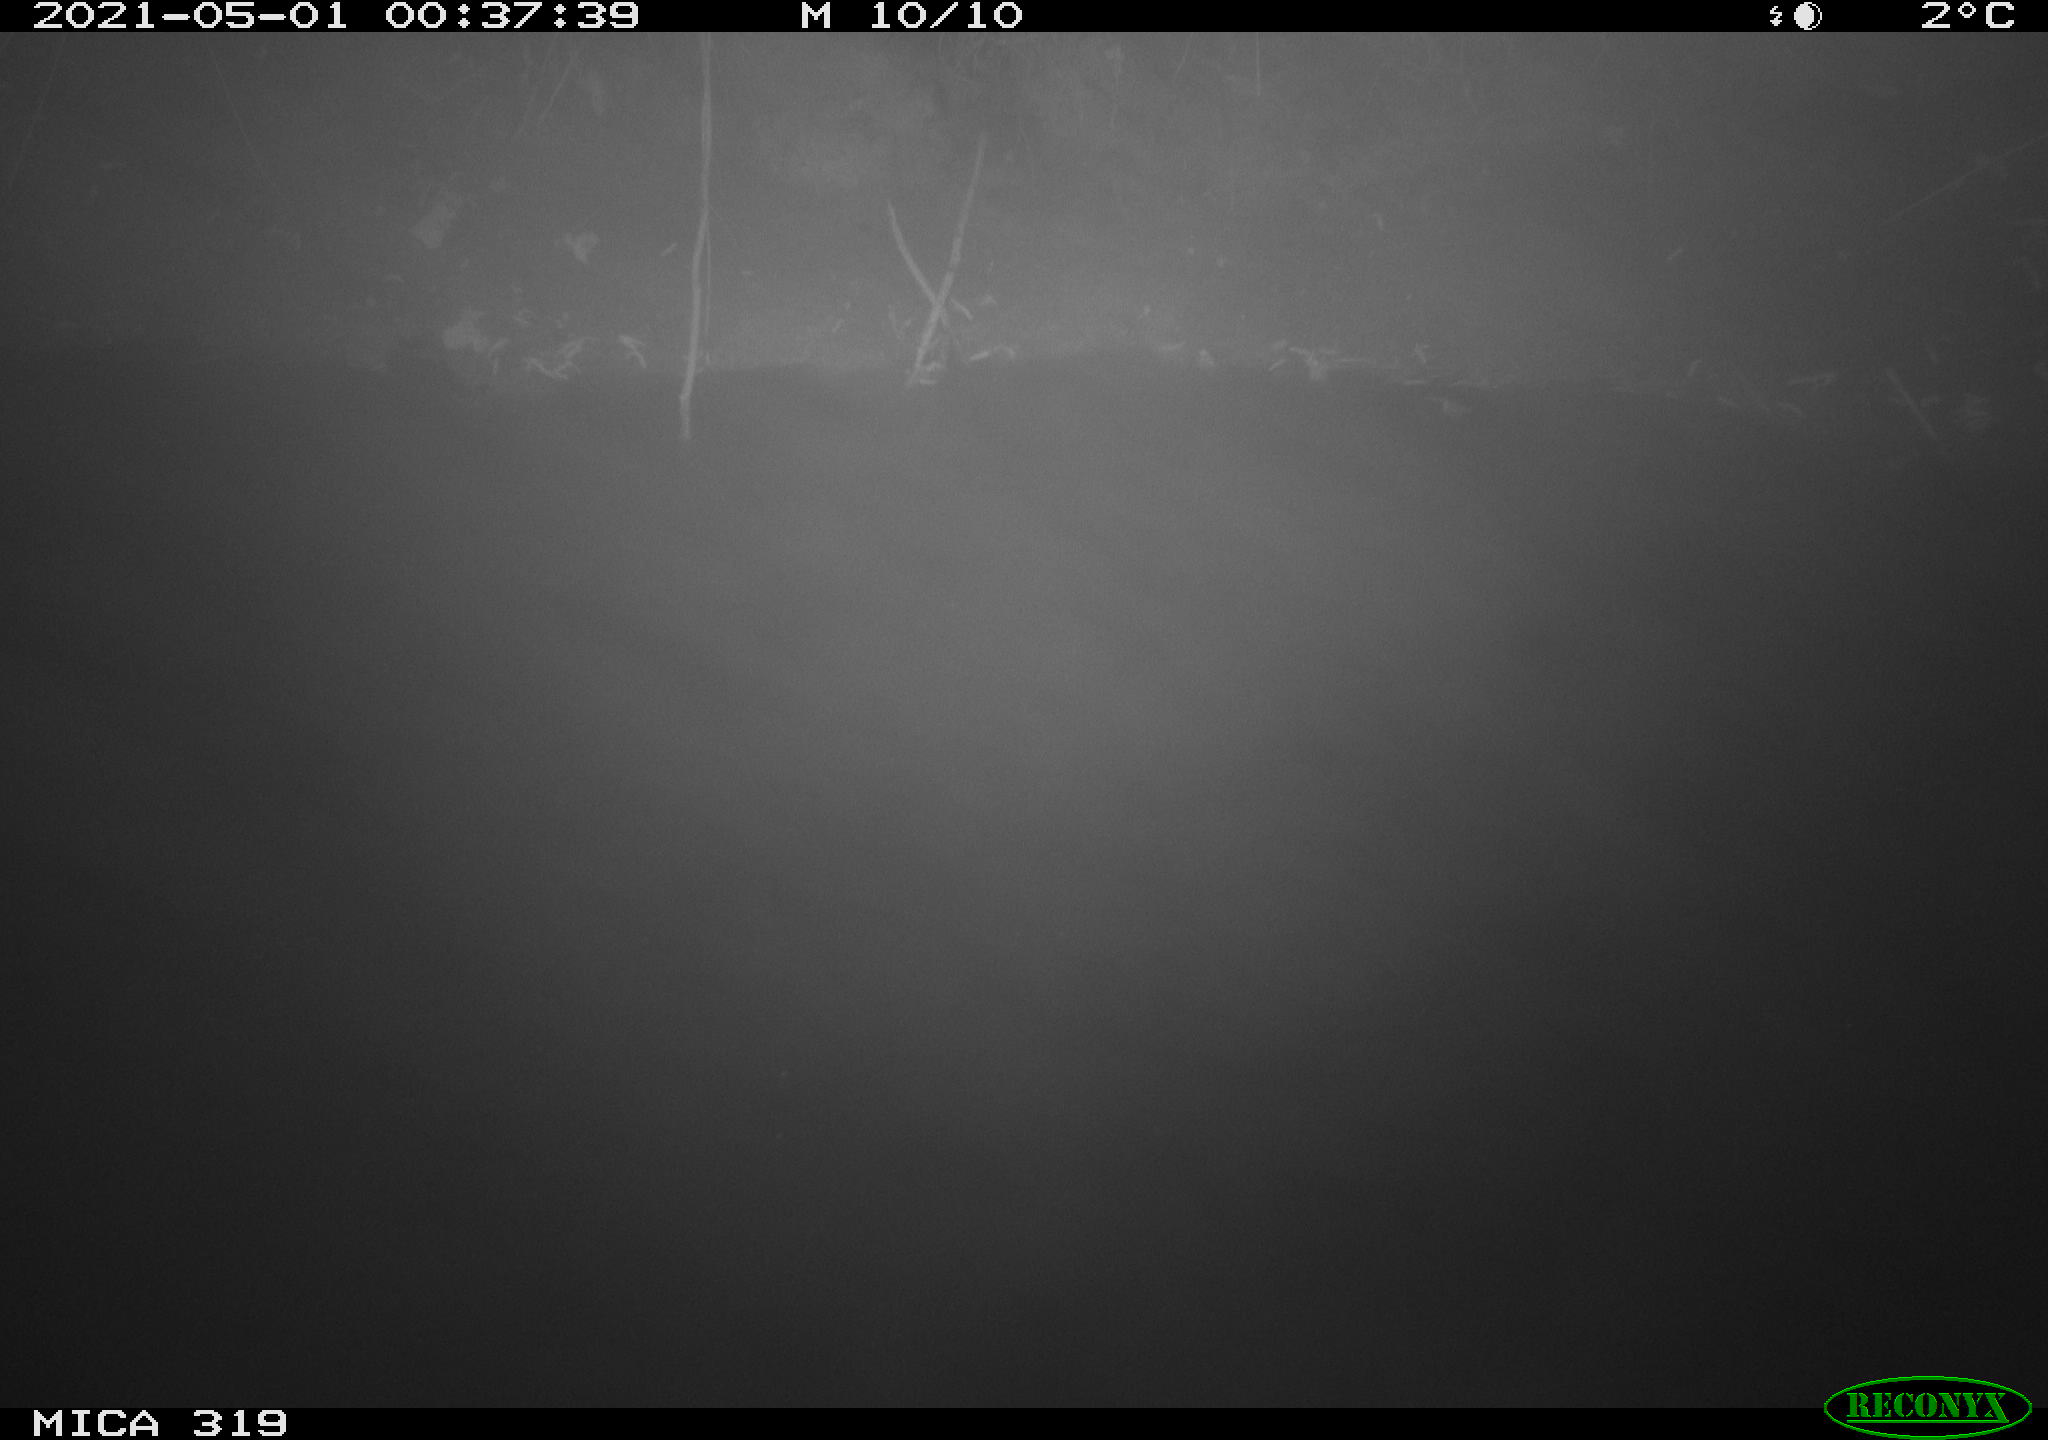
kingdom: Animalia
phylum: Chordata
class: Aves
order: Anseriformes
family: Anatidae
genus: Anas
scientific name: Anas platyrhynchos
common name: Mallard
